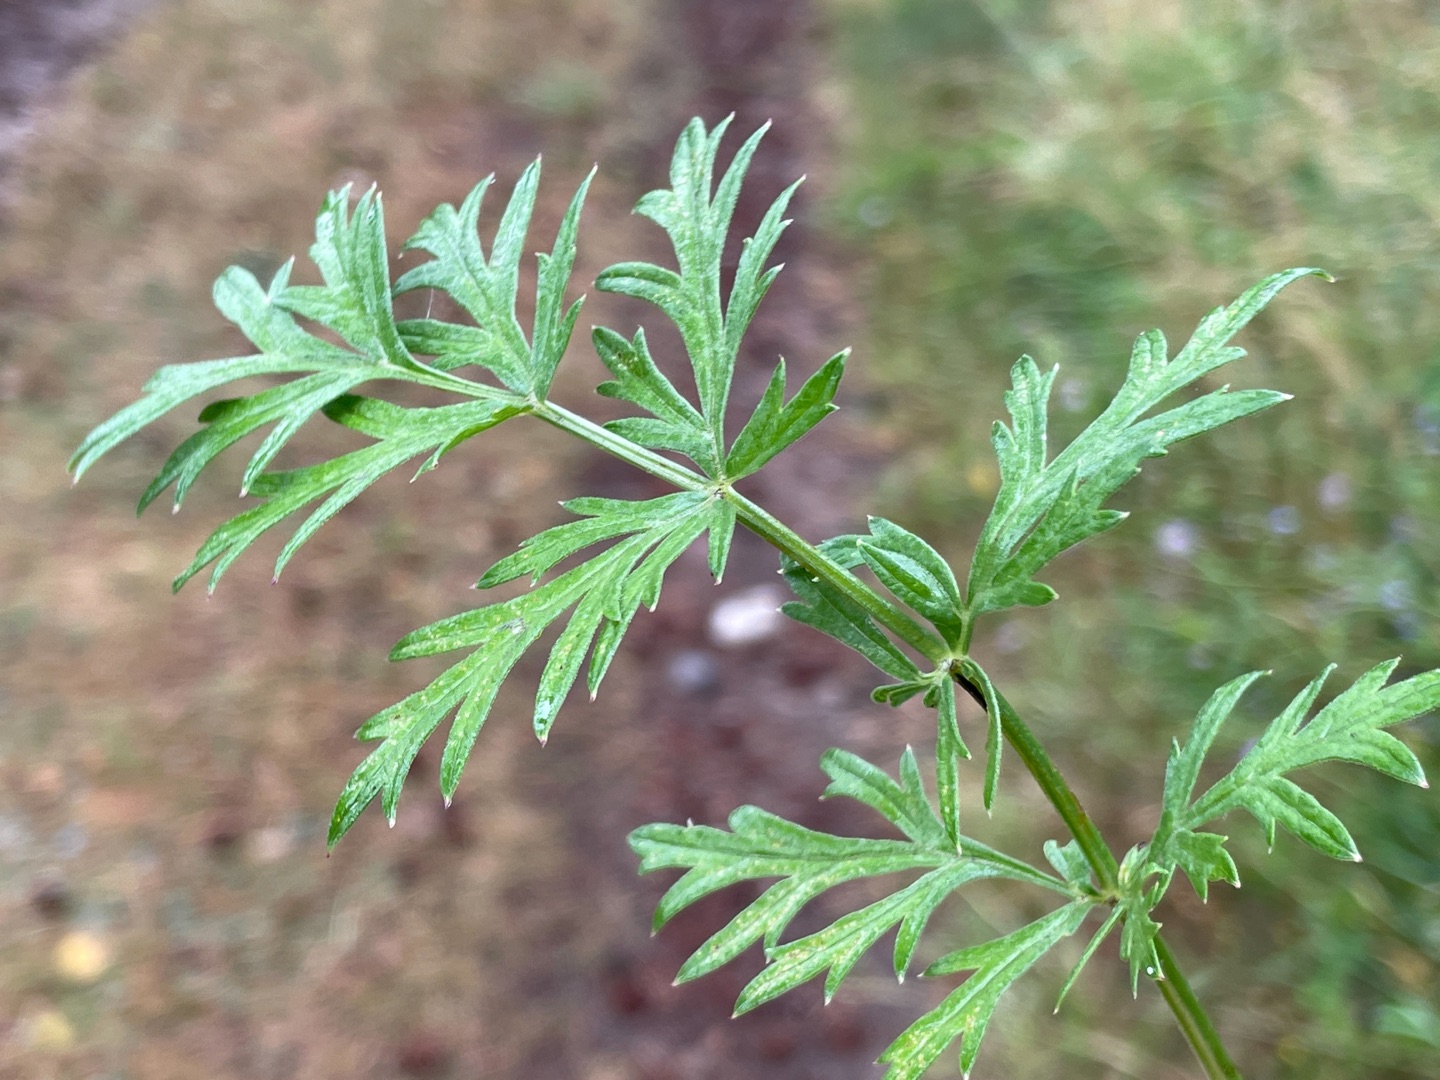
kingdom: Plantae
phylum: Tracheophyta
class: Magnoliopsida
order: Apiales
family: Apiaceae
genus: Pimpinella
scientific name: Pimpinella saxifraga
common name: Almindelig pimpinelle
